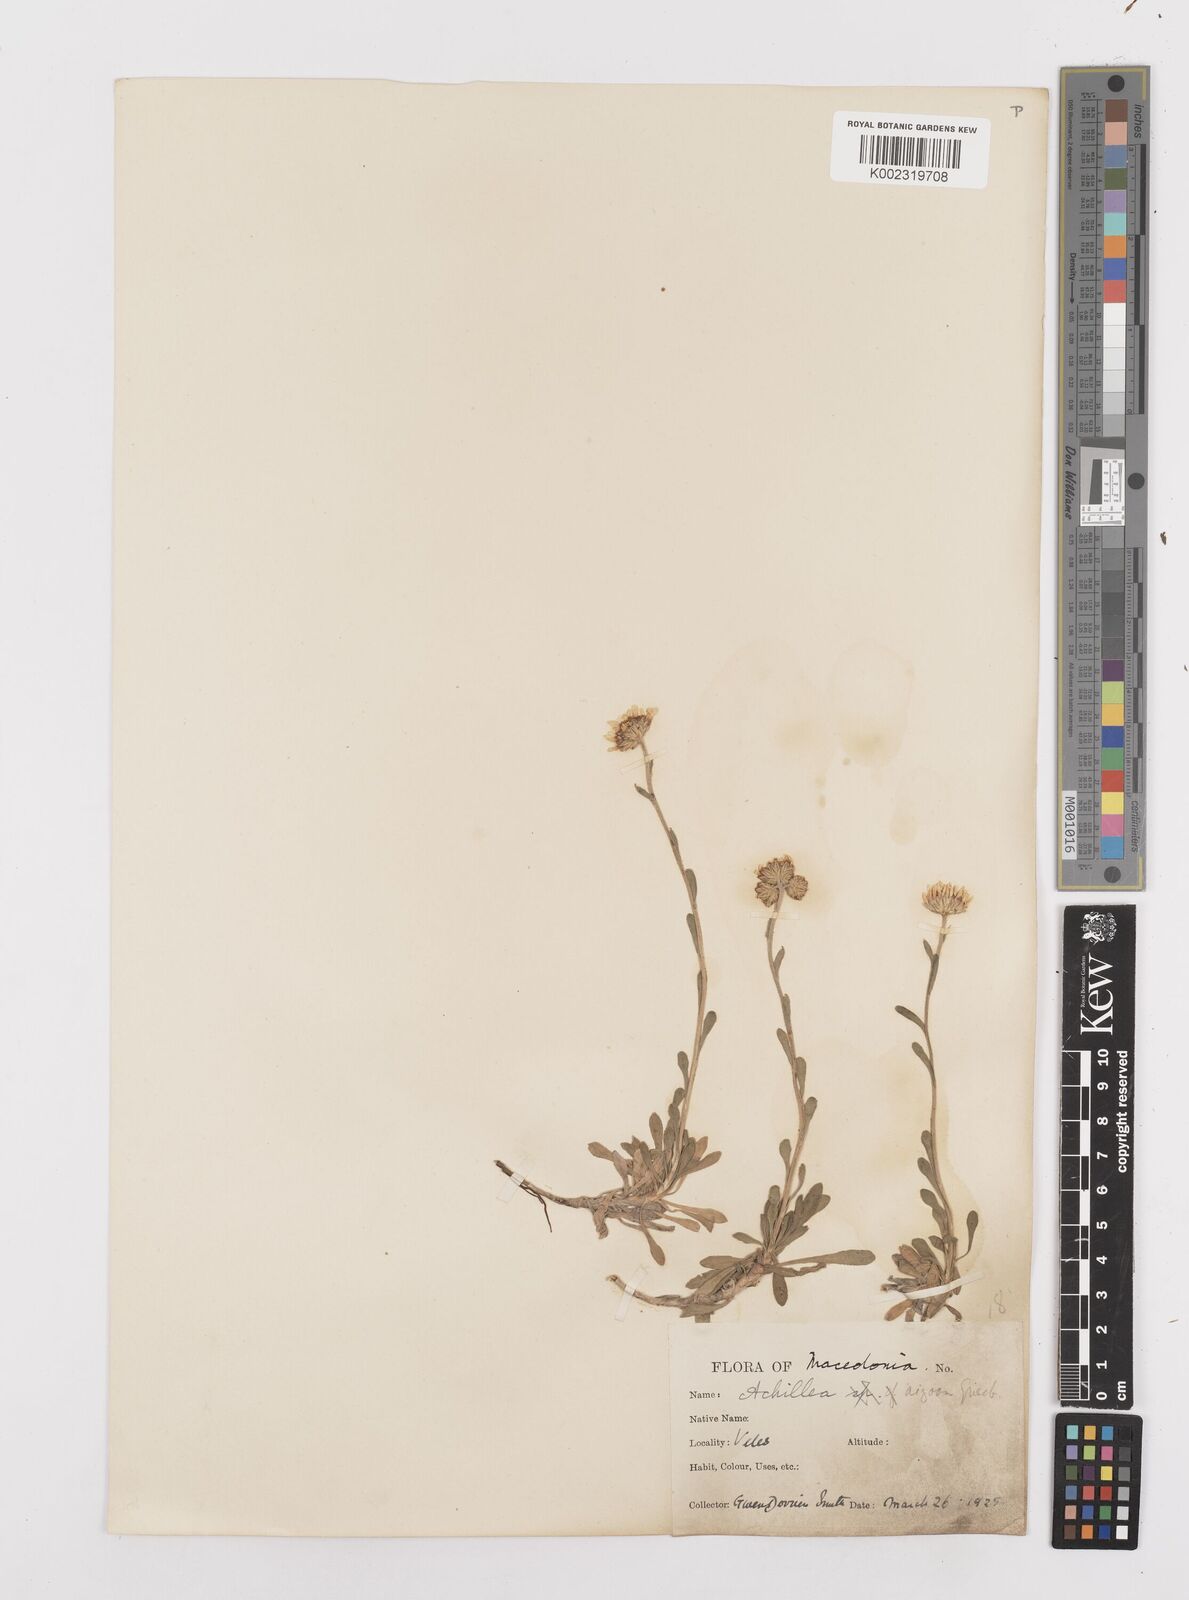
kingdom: Plantae
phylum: Tracheophyta
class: Magnoliopsida
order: Asterales
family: Asteraceae
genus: Achillea
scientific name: Achillea ageratifolia
